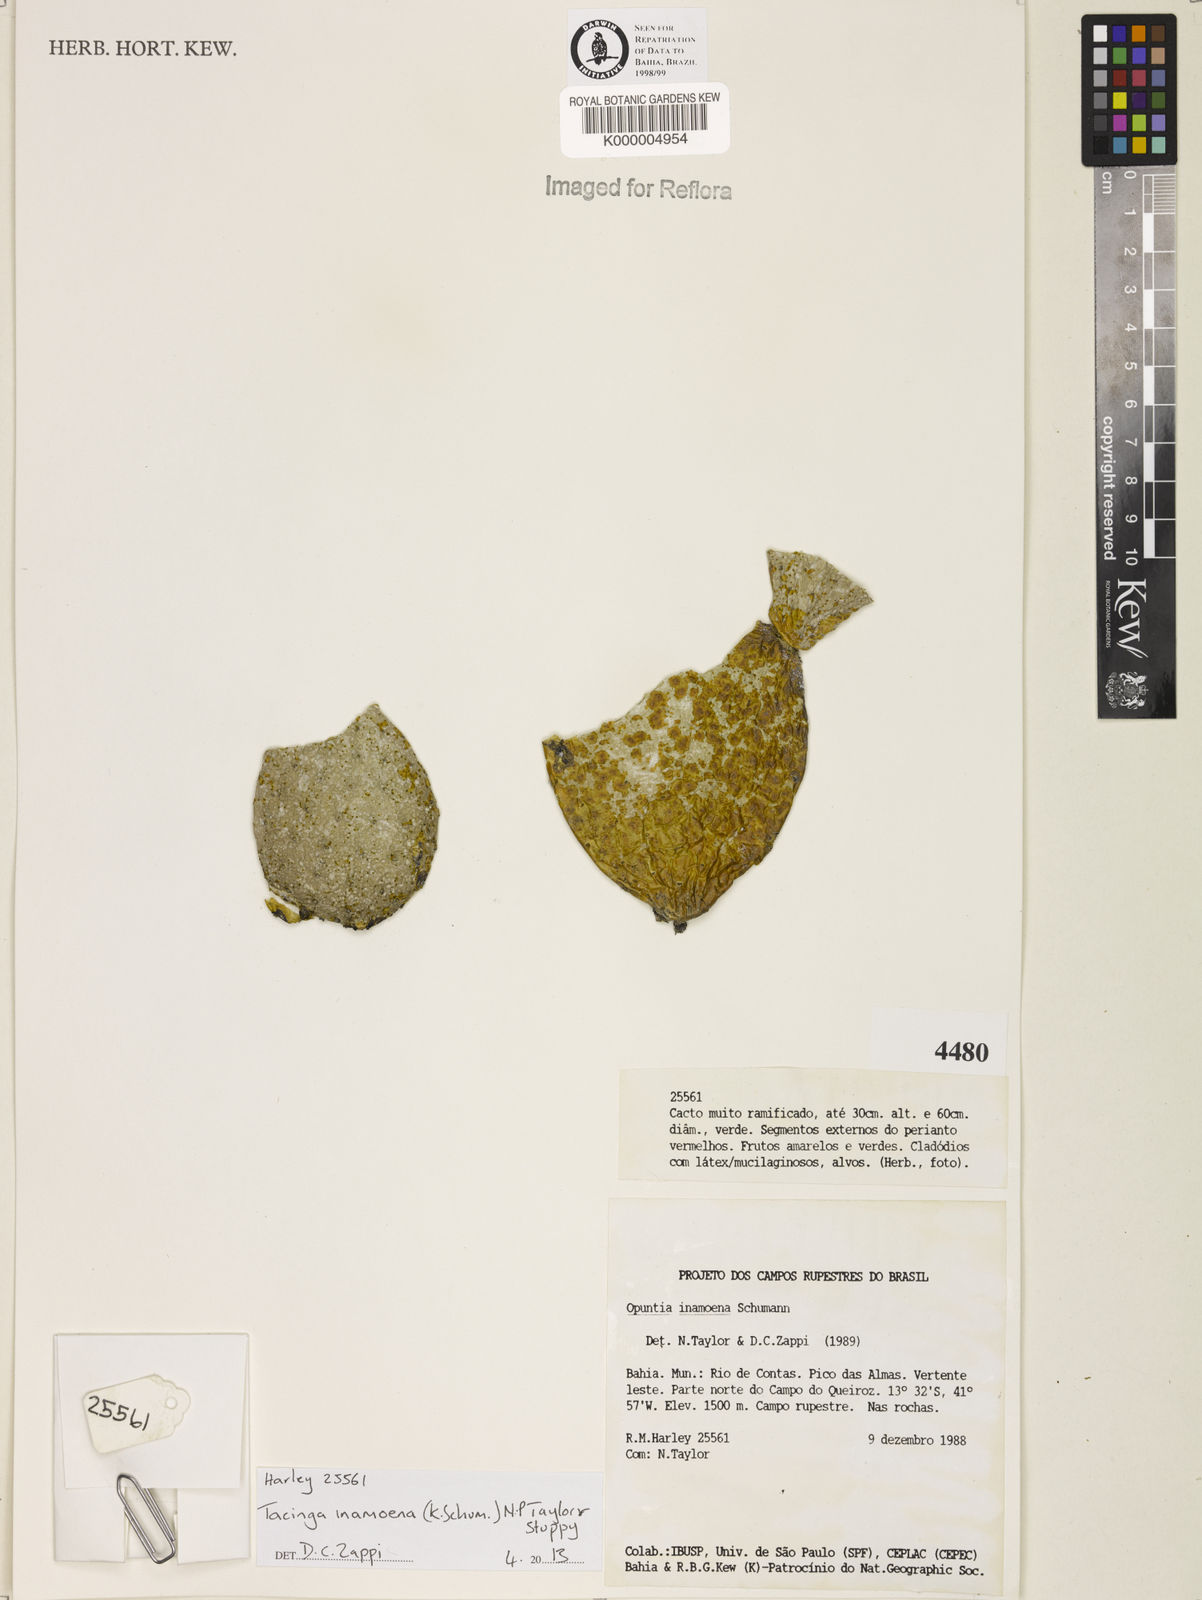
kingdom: Plantae
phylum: Tracheophyta
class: Magnoliopsida
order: Caryophyllales
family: Cactaceae
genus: Tacinga
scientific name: Tacinga inamoena
